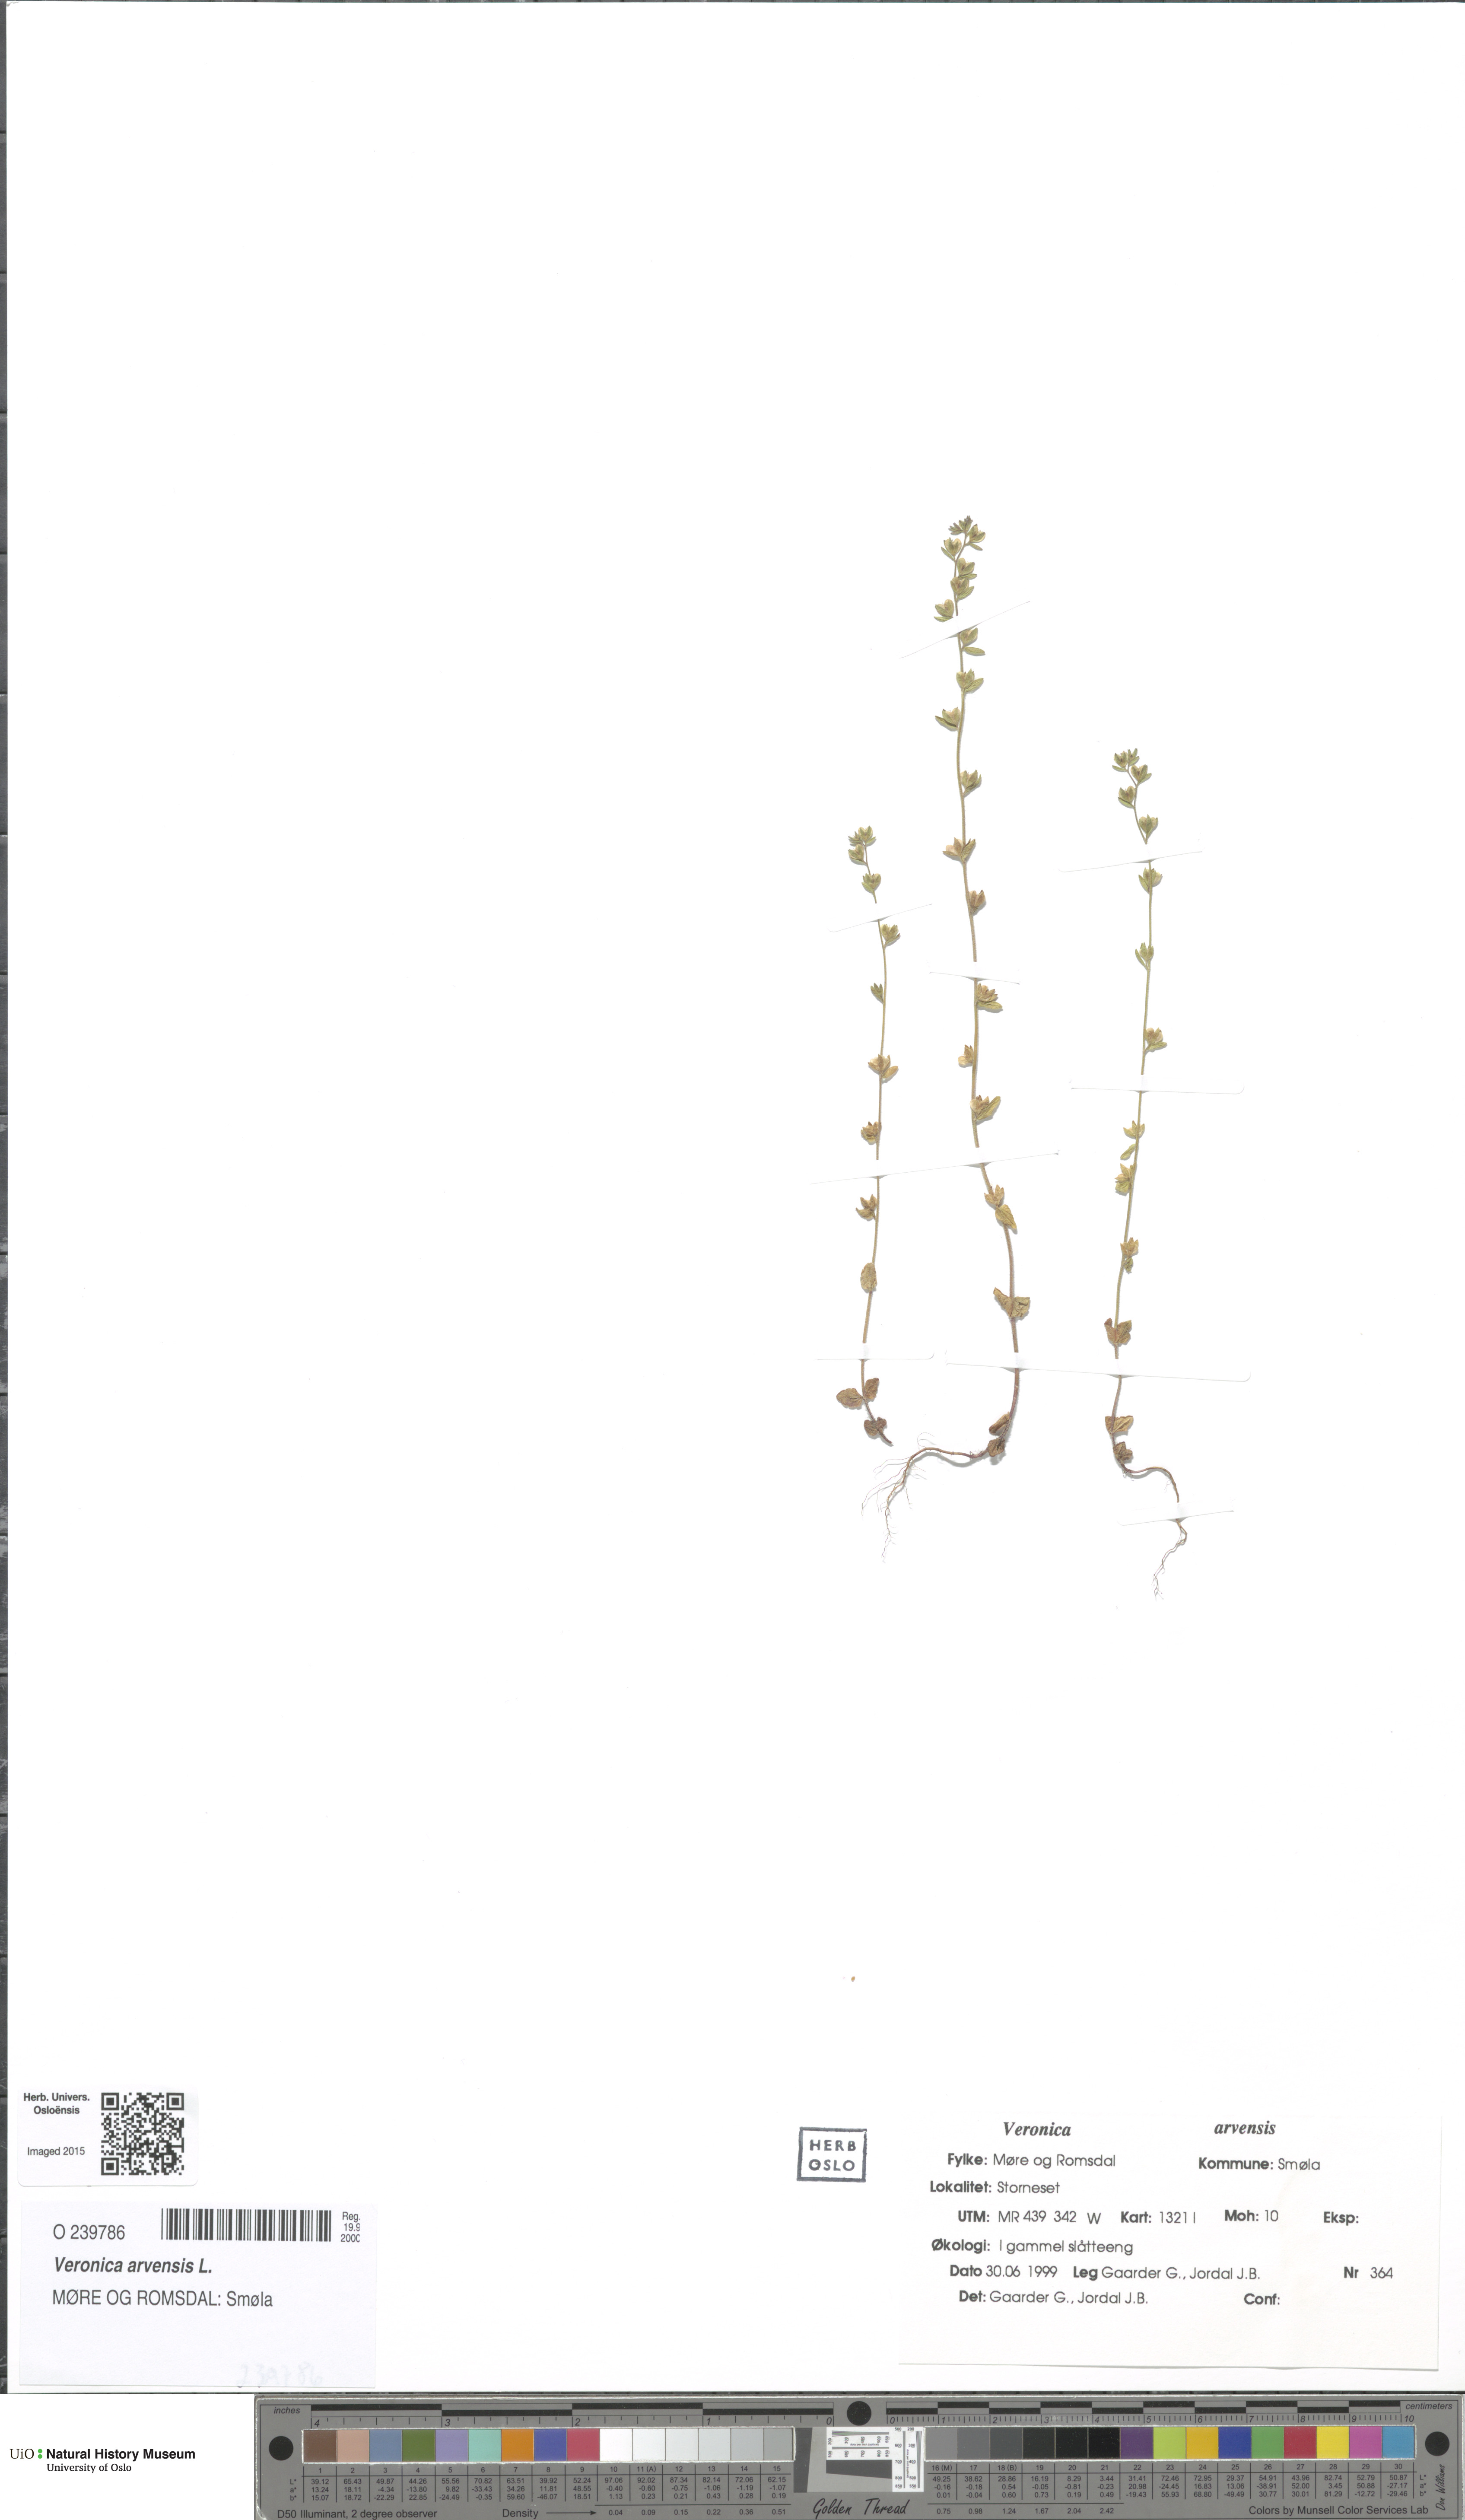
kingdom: Plantae
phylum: Tracheophyta
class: Magnoliopsida
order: Lamiales
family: Plantaginaceae
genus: Veronica
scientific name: Veronica arvensis
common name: Corn speedwell
